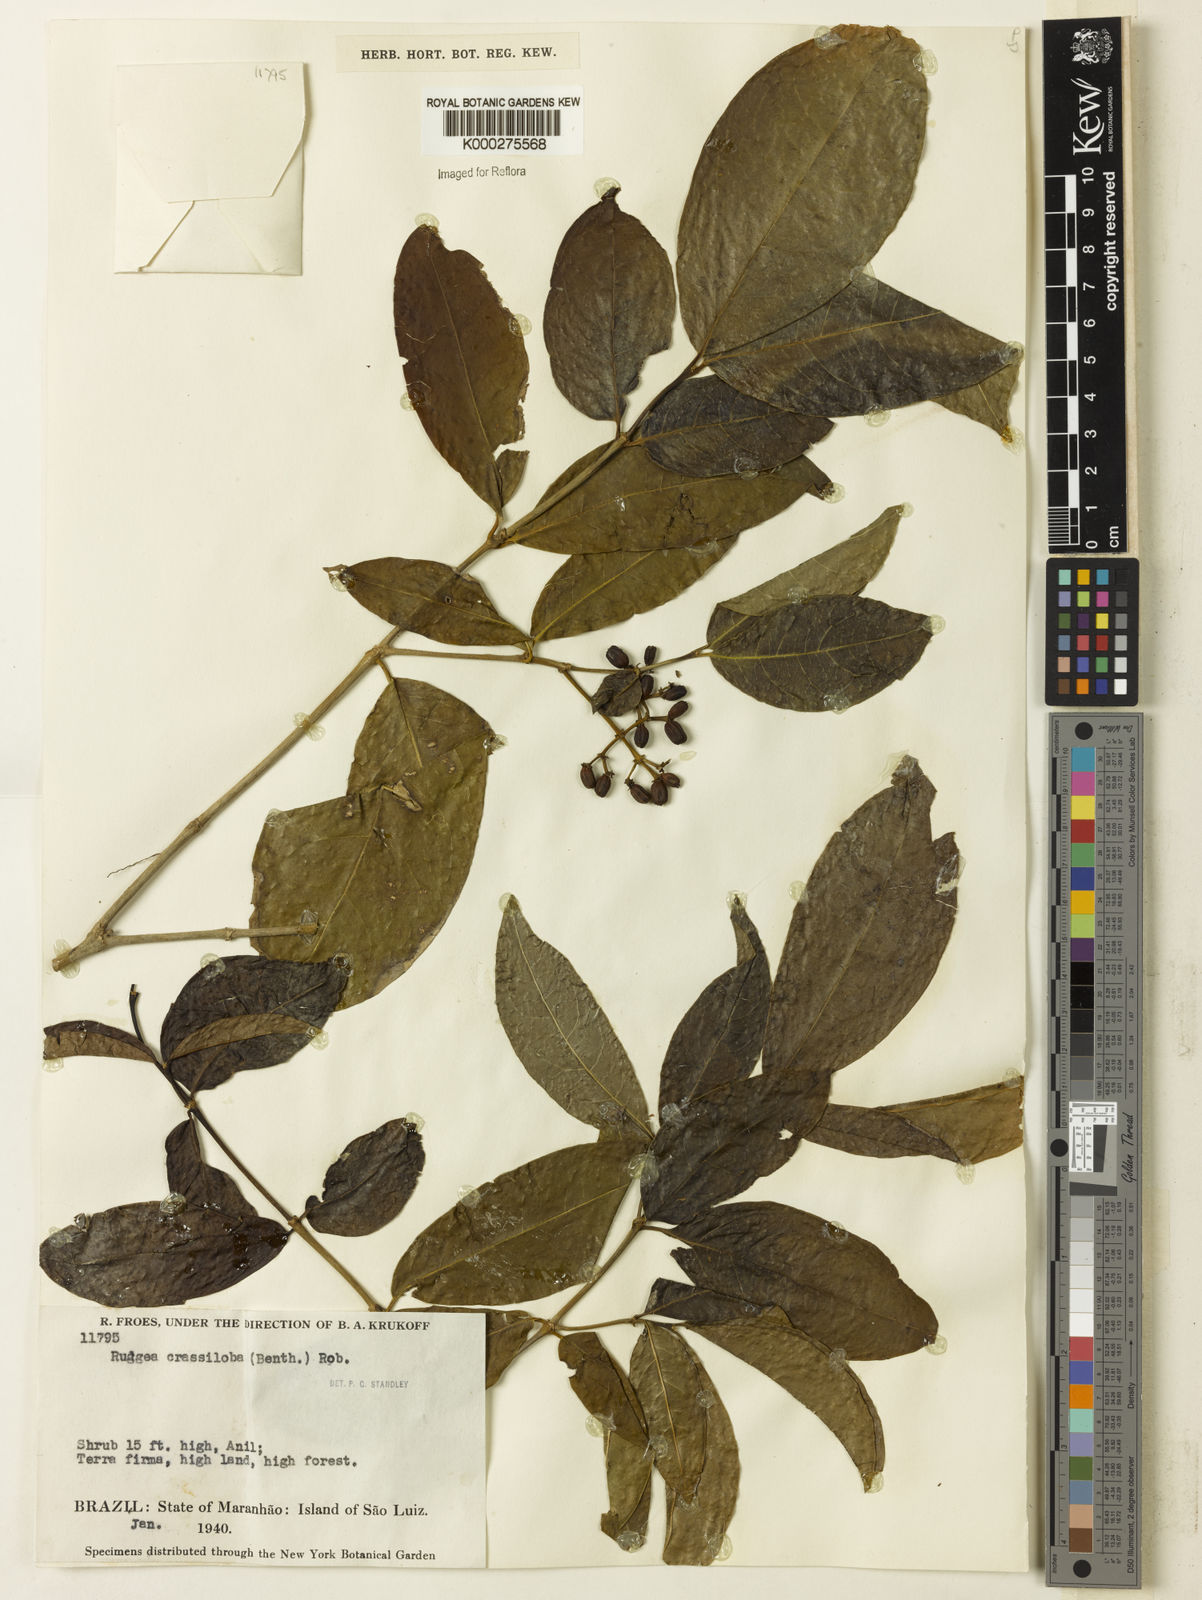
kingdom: Plantae
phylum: Tracheophyta
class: Magnoliopsida
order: Gentianales
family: Rubiaceae
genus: Rudgea
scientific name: Rudgea crassiloba
